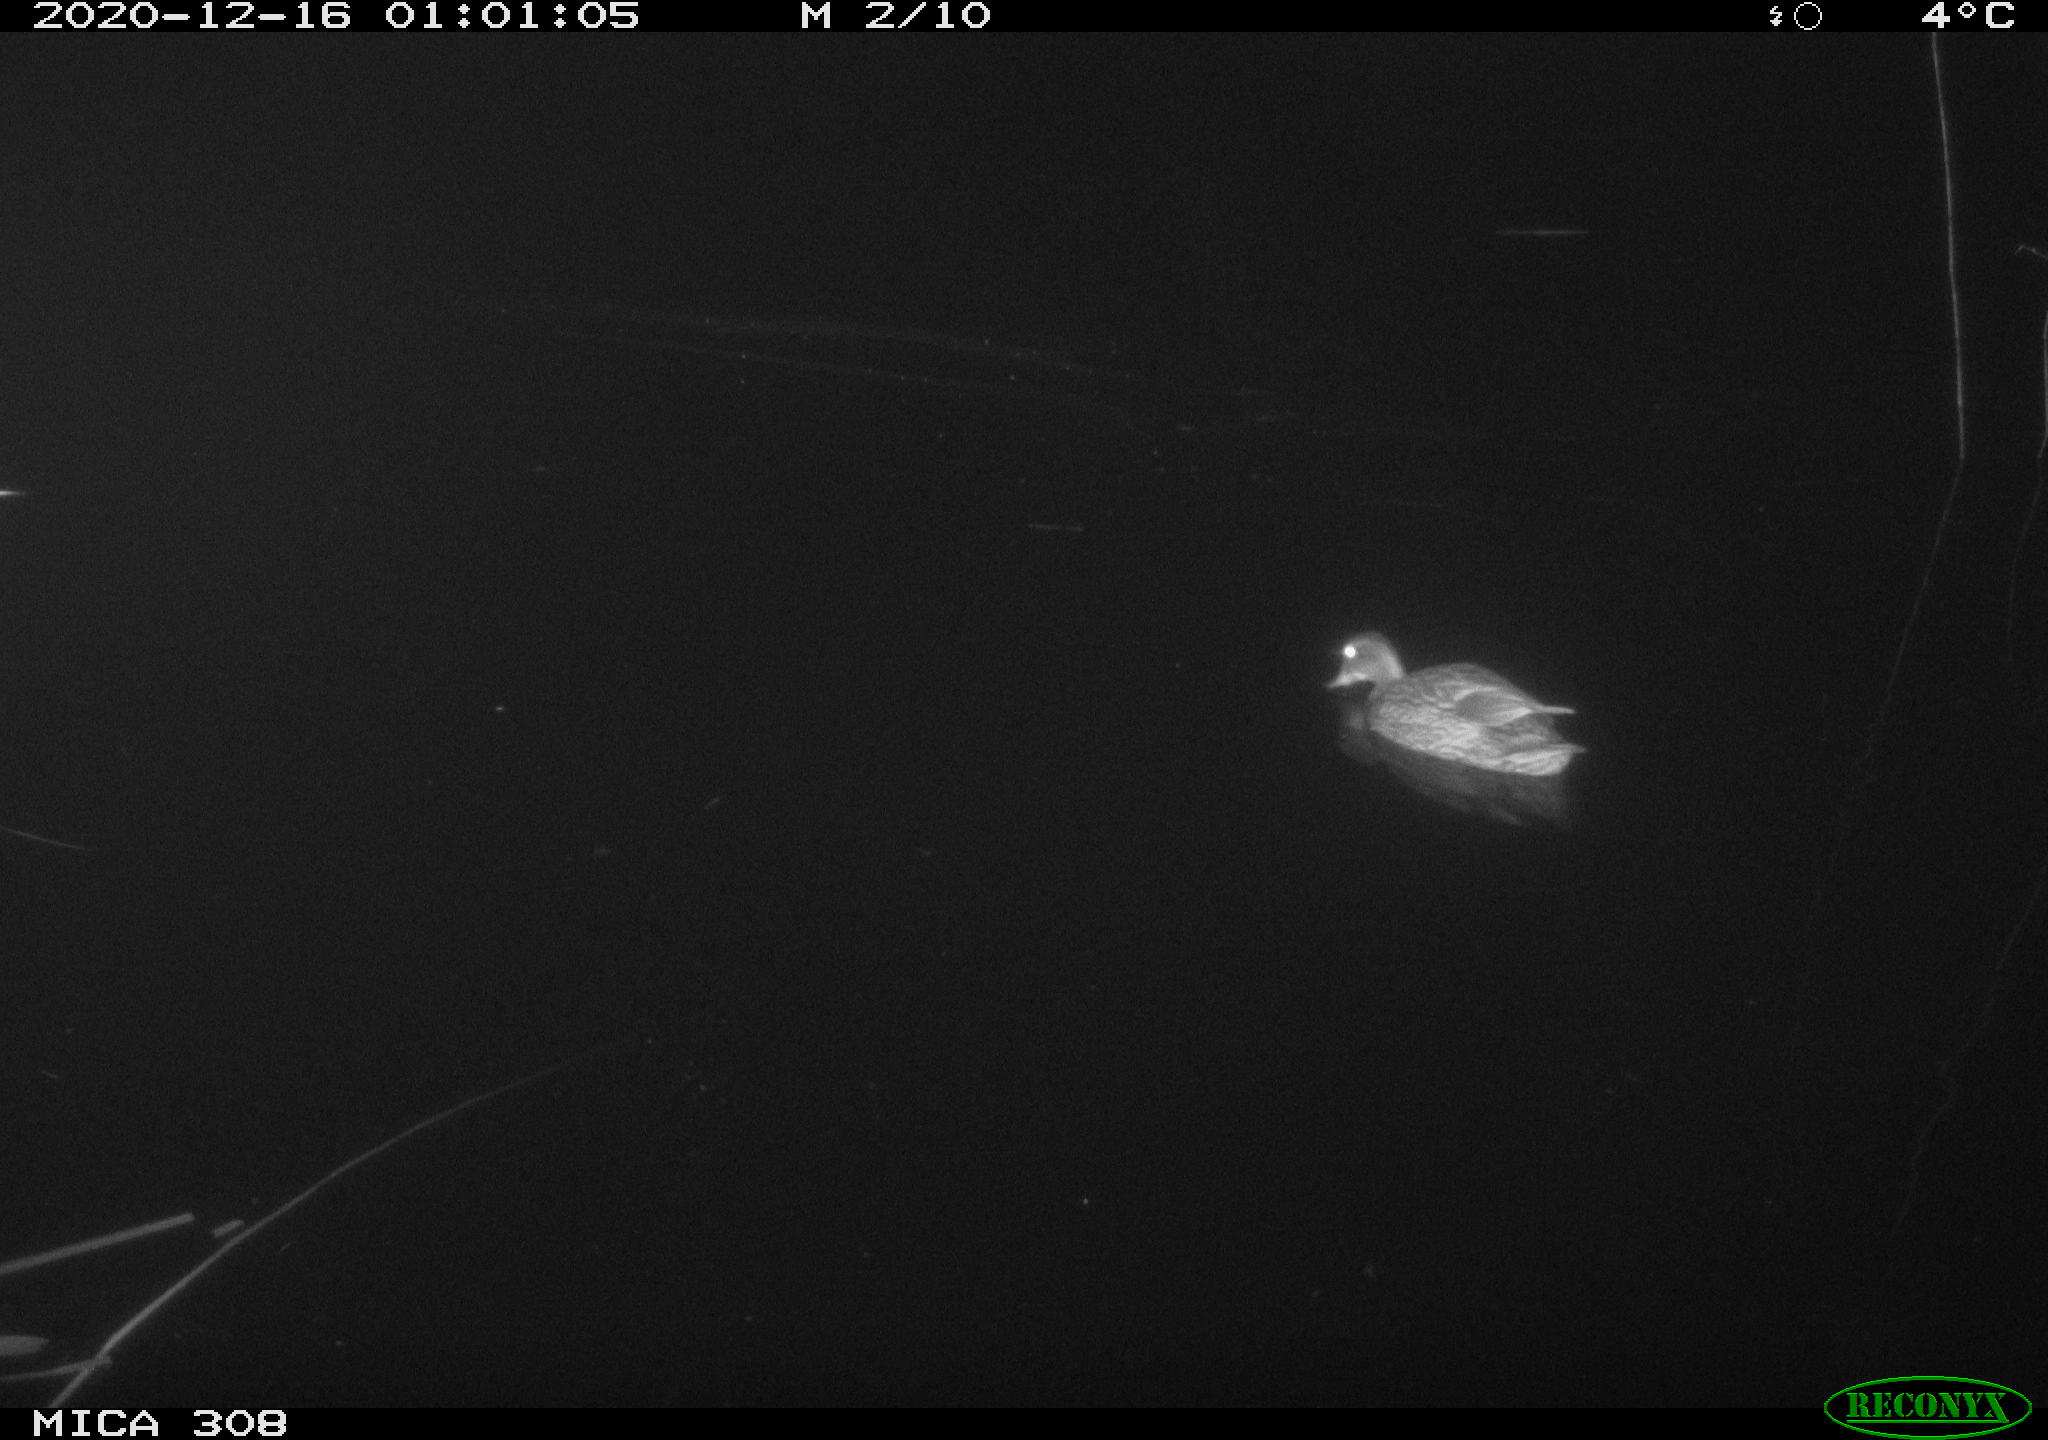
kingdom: Animalia
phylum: Chordata
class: Aves
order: Anseriformes
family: Anatidae
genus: Anas
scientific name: Anas platyrhynchos
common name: Mallard
